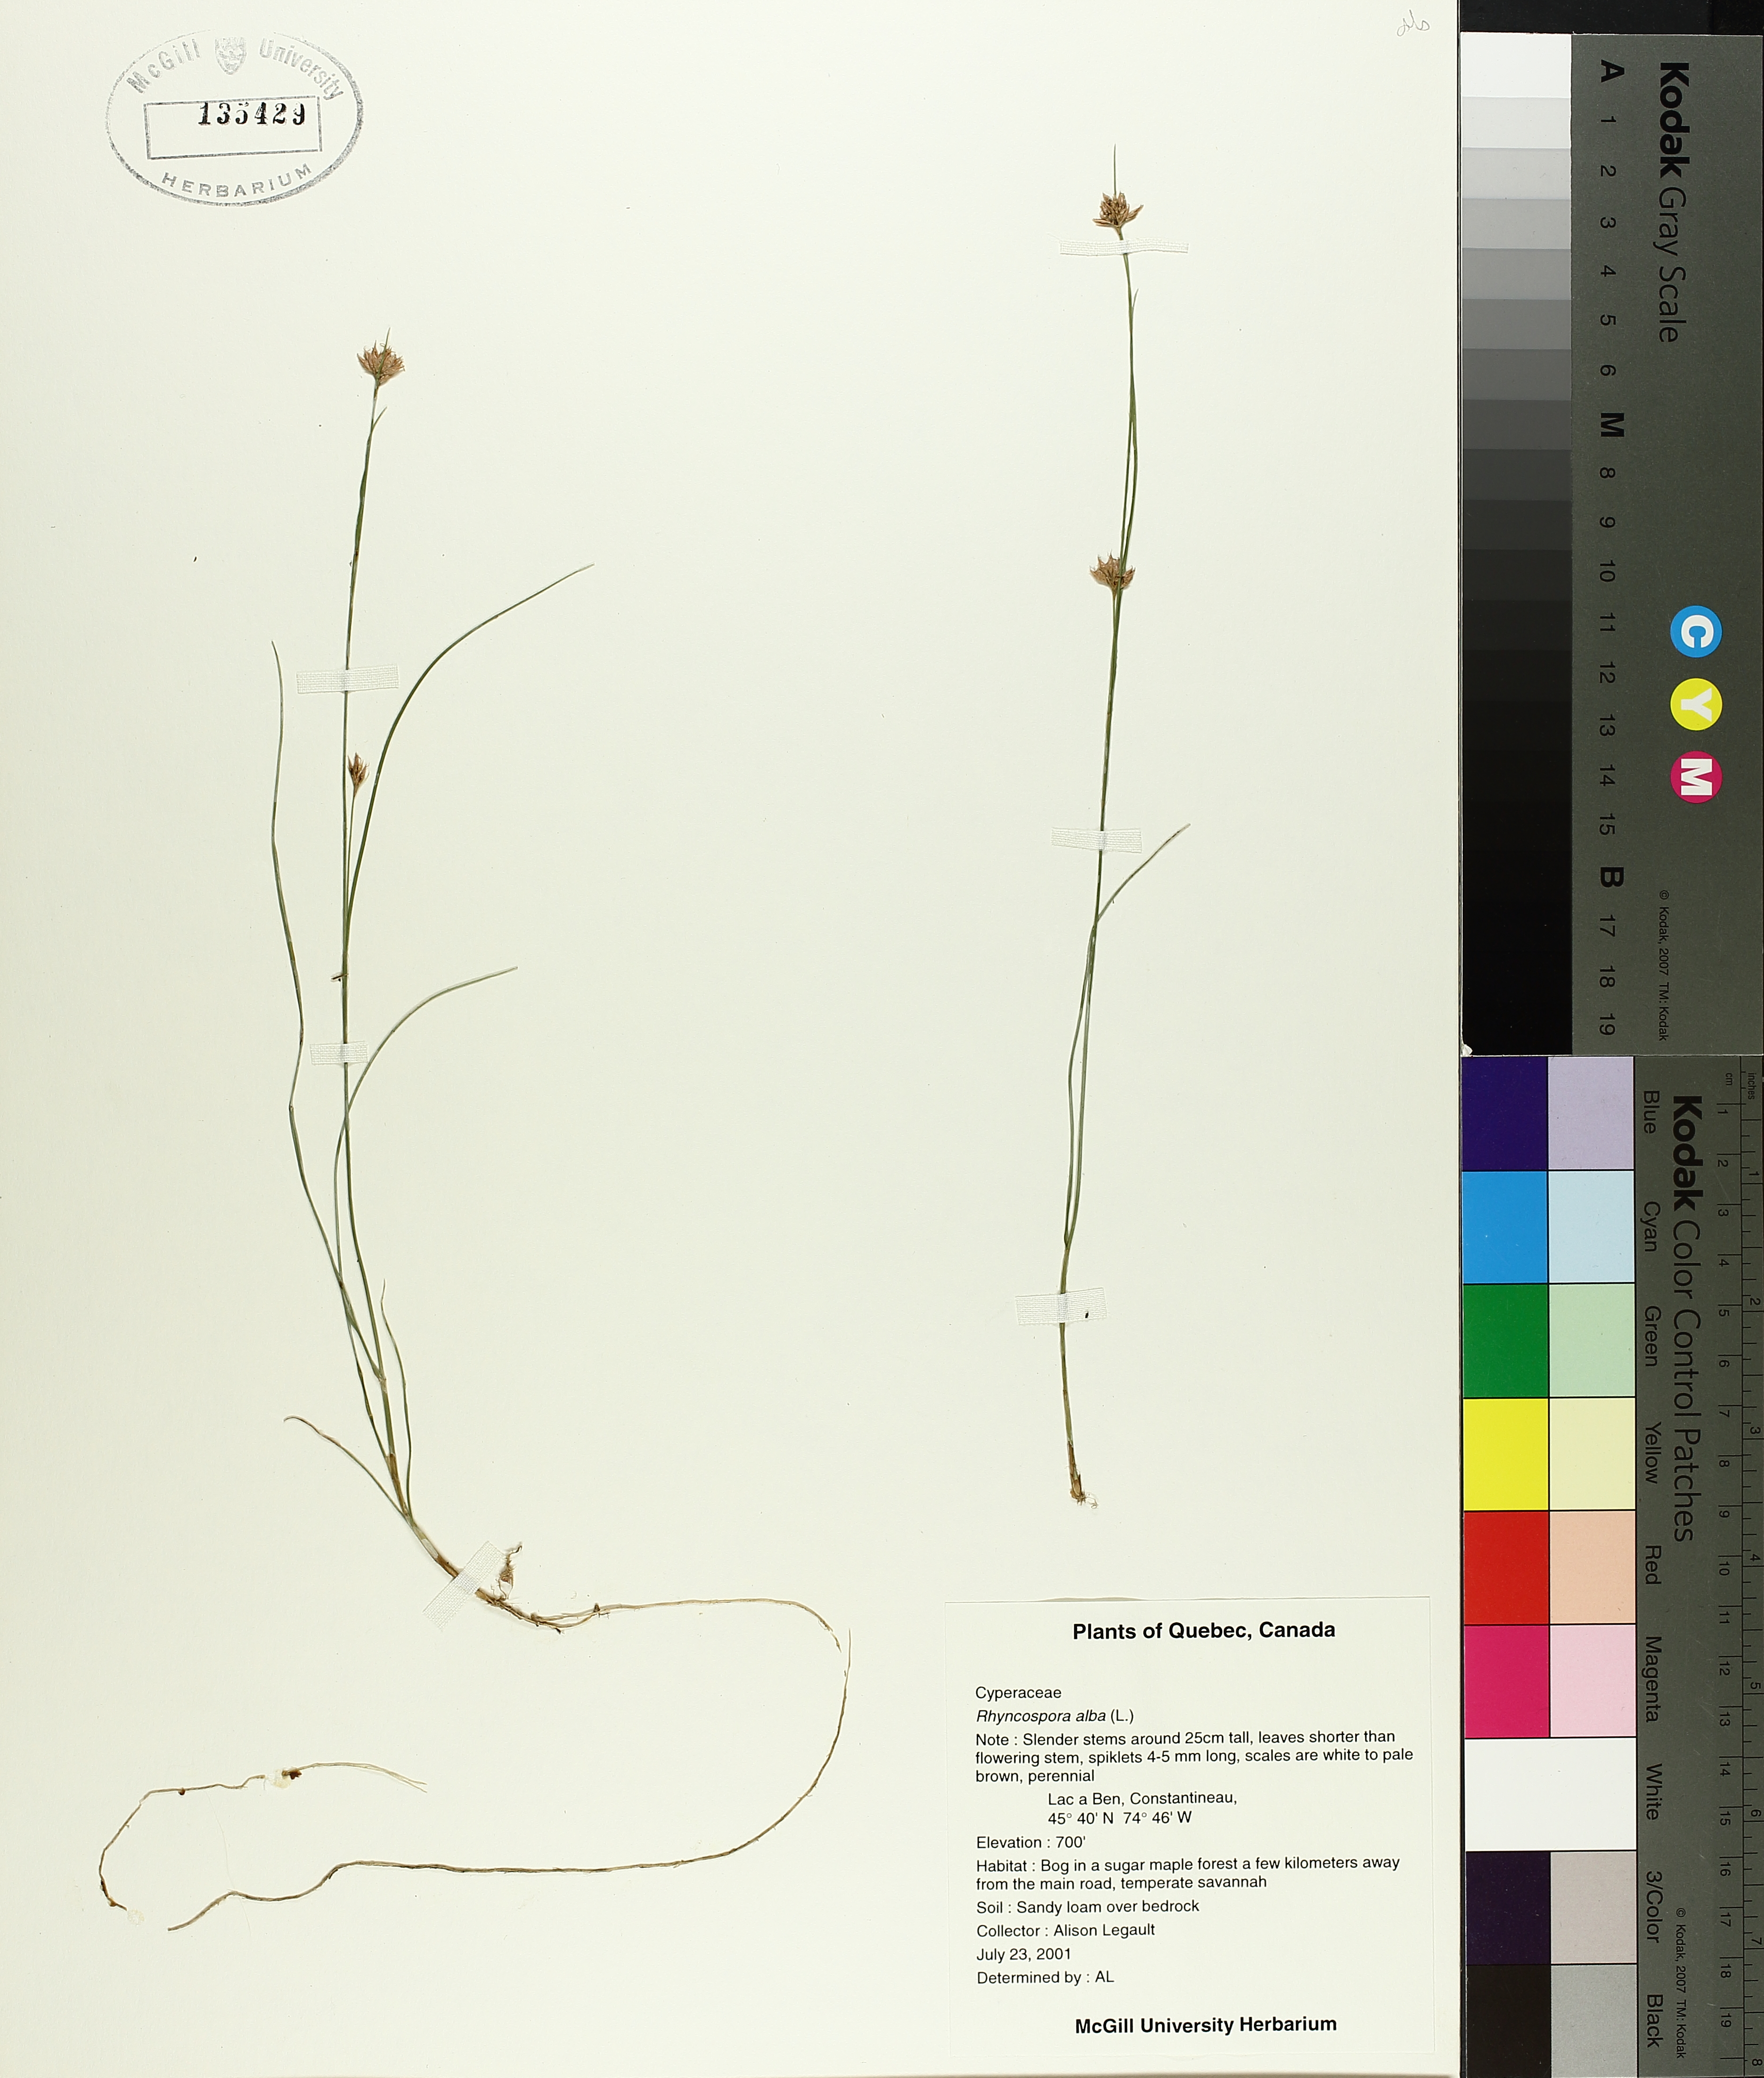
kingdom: Plantae
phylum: Tracheophyta
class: Liliopsida
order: Poales
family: Cyperaceae
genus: Rhynchospora
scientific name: Rhynchospora alba
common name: White beak-sedge
